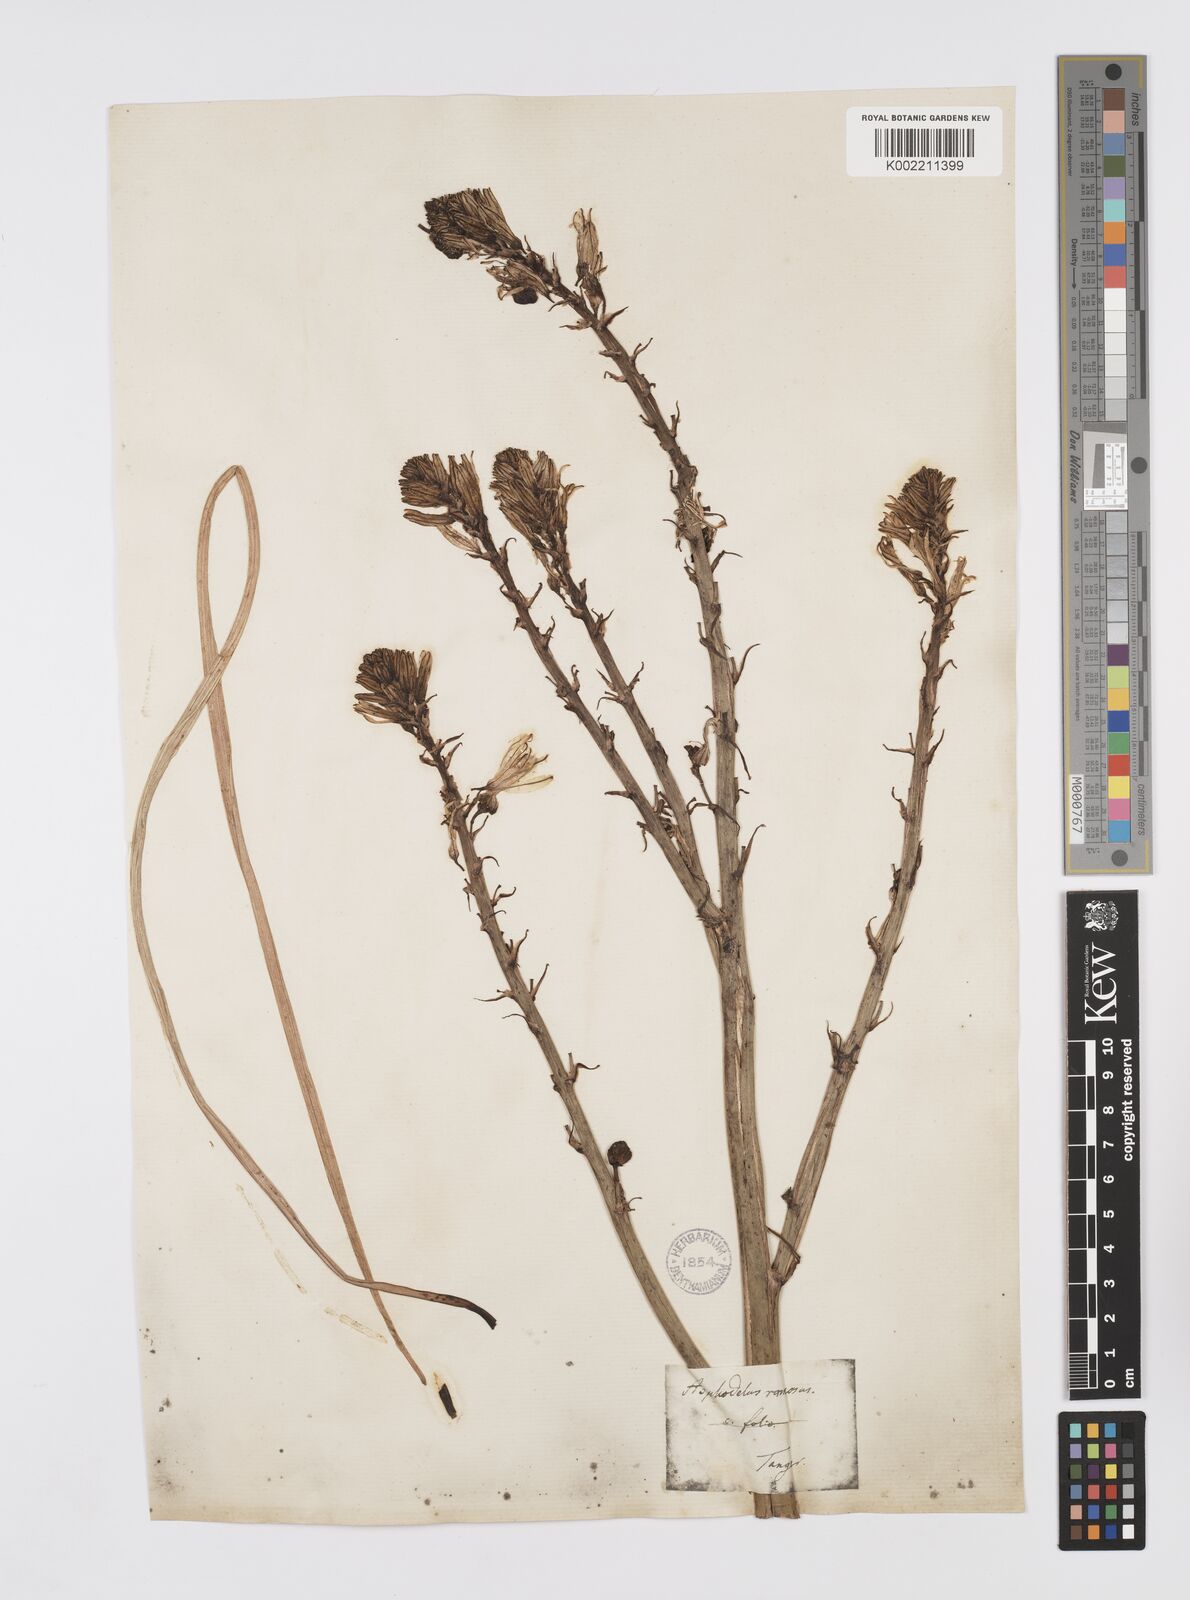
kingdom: Plantae
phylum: Tracheophyta
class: Liliopsida
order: Asparagales
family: Asphodelaceae
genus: Asphodelus
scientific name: Asphodelus ramosus
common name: Silverrod
